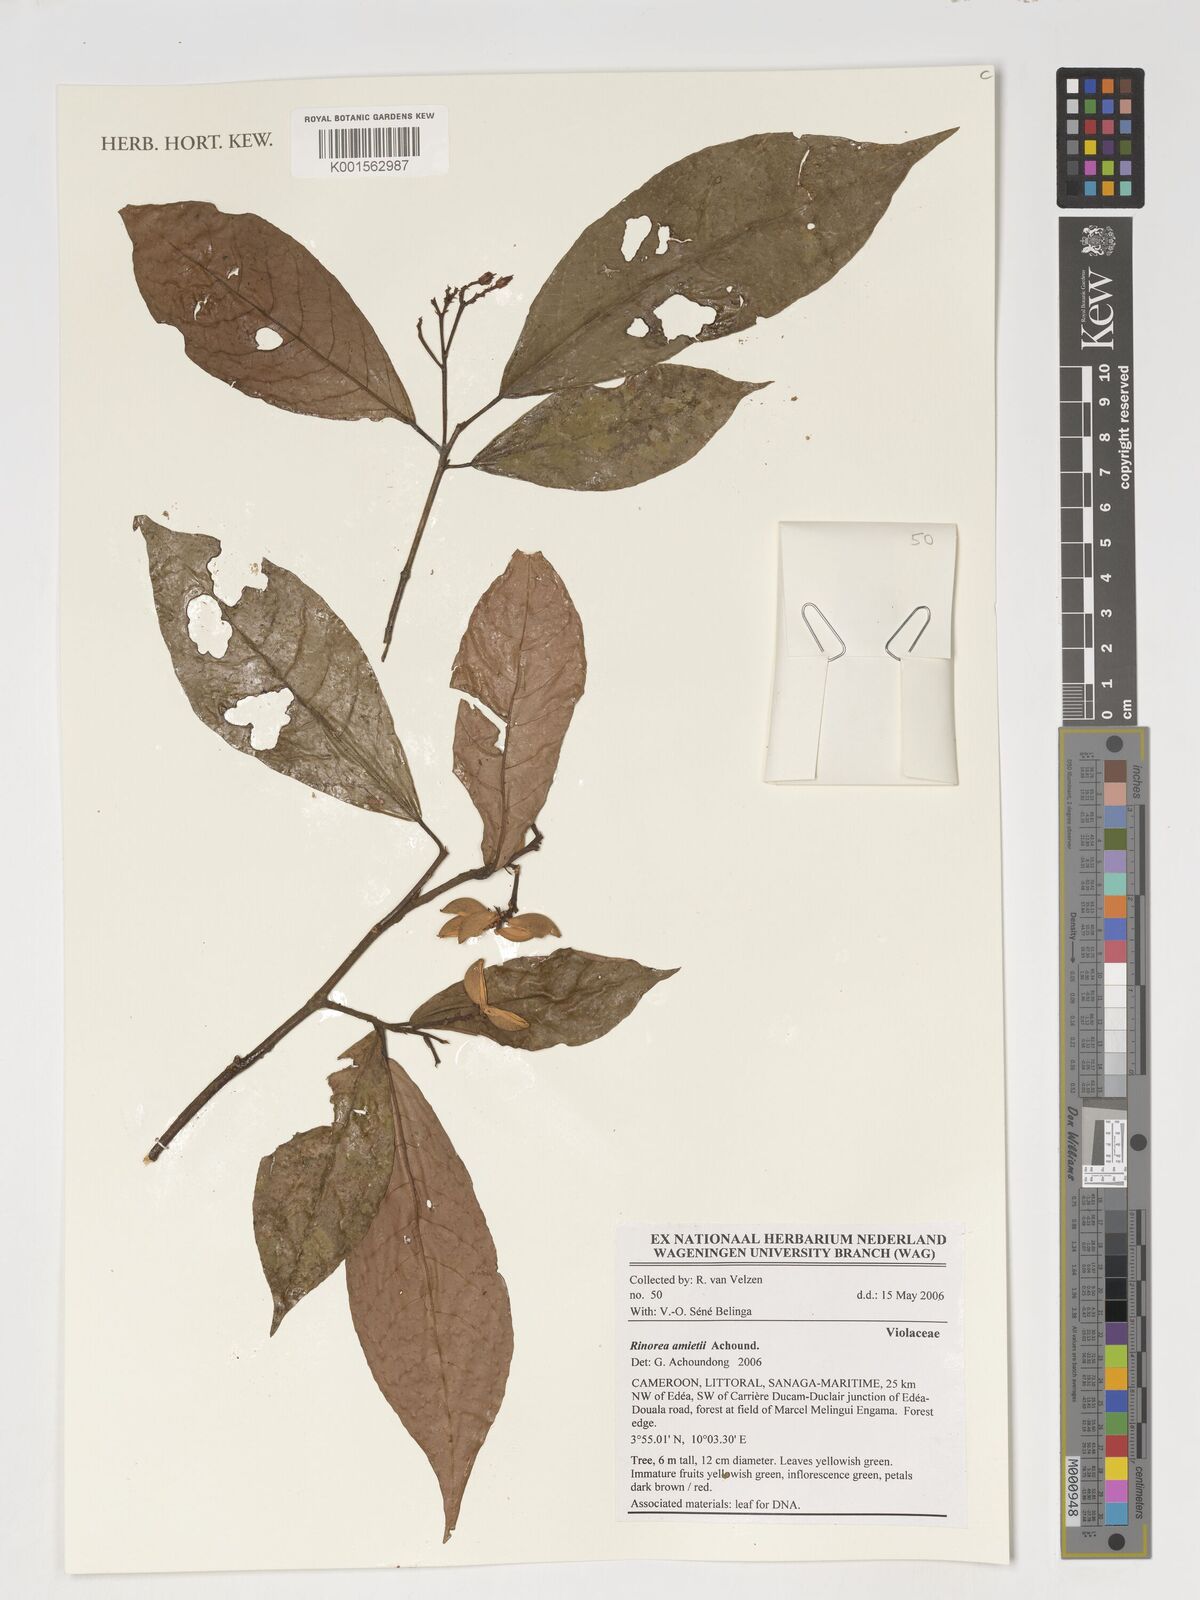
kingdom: Plantae
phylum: Tracheophyta
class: Magnoliopsida
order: Malpighiales
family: Violaceae
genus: Rinorea
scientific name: Rinorea
